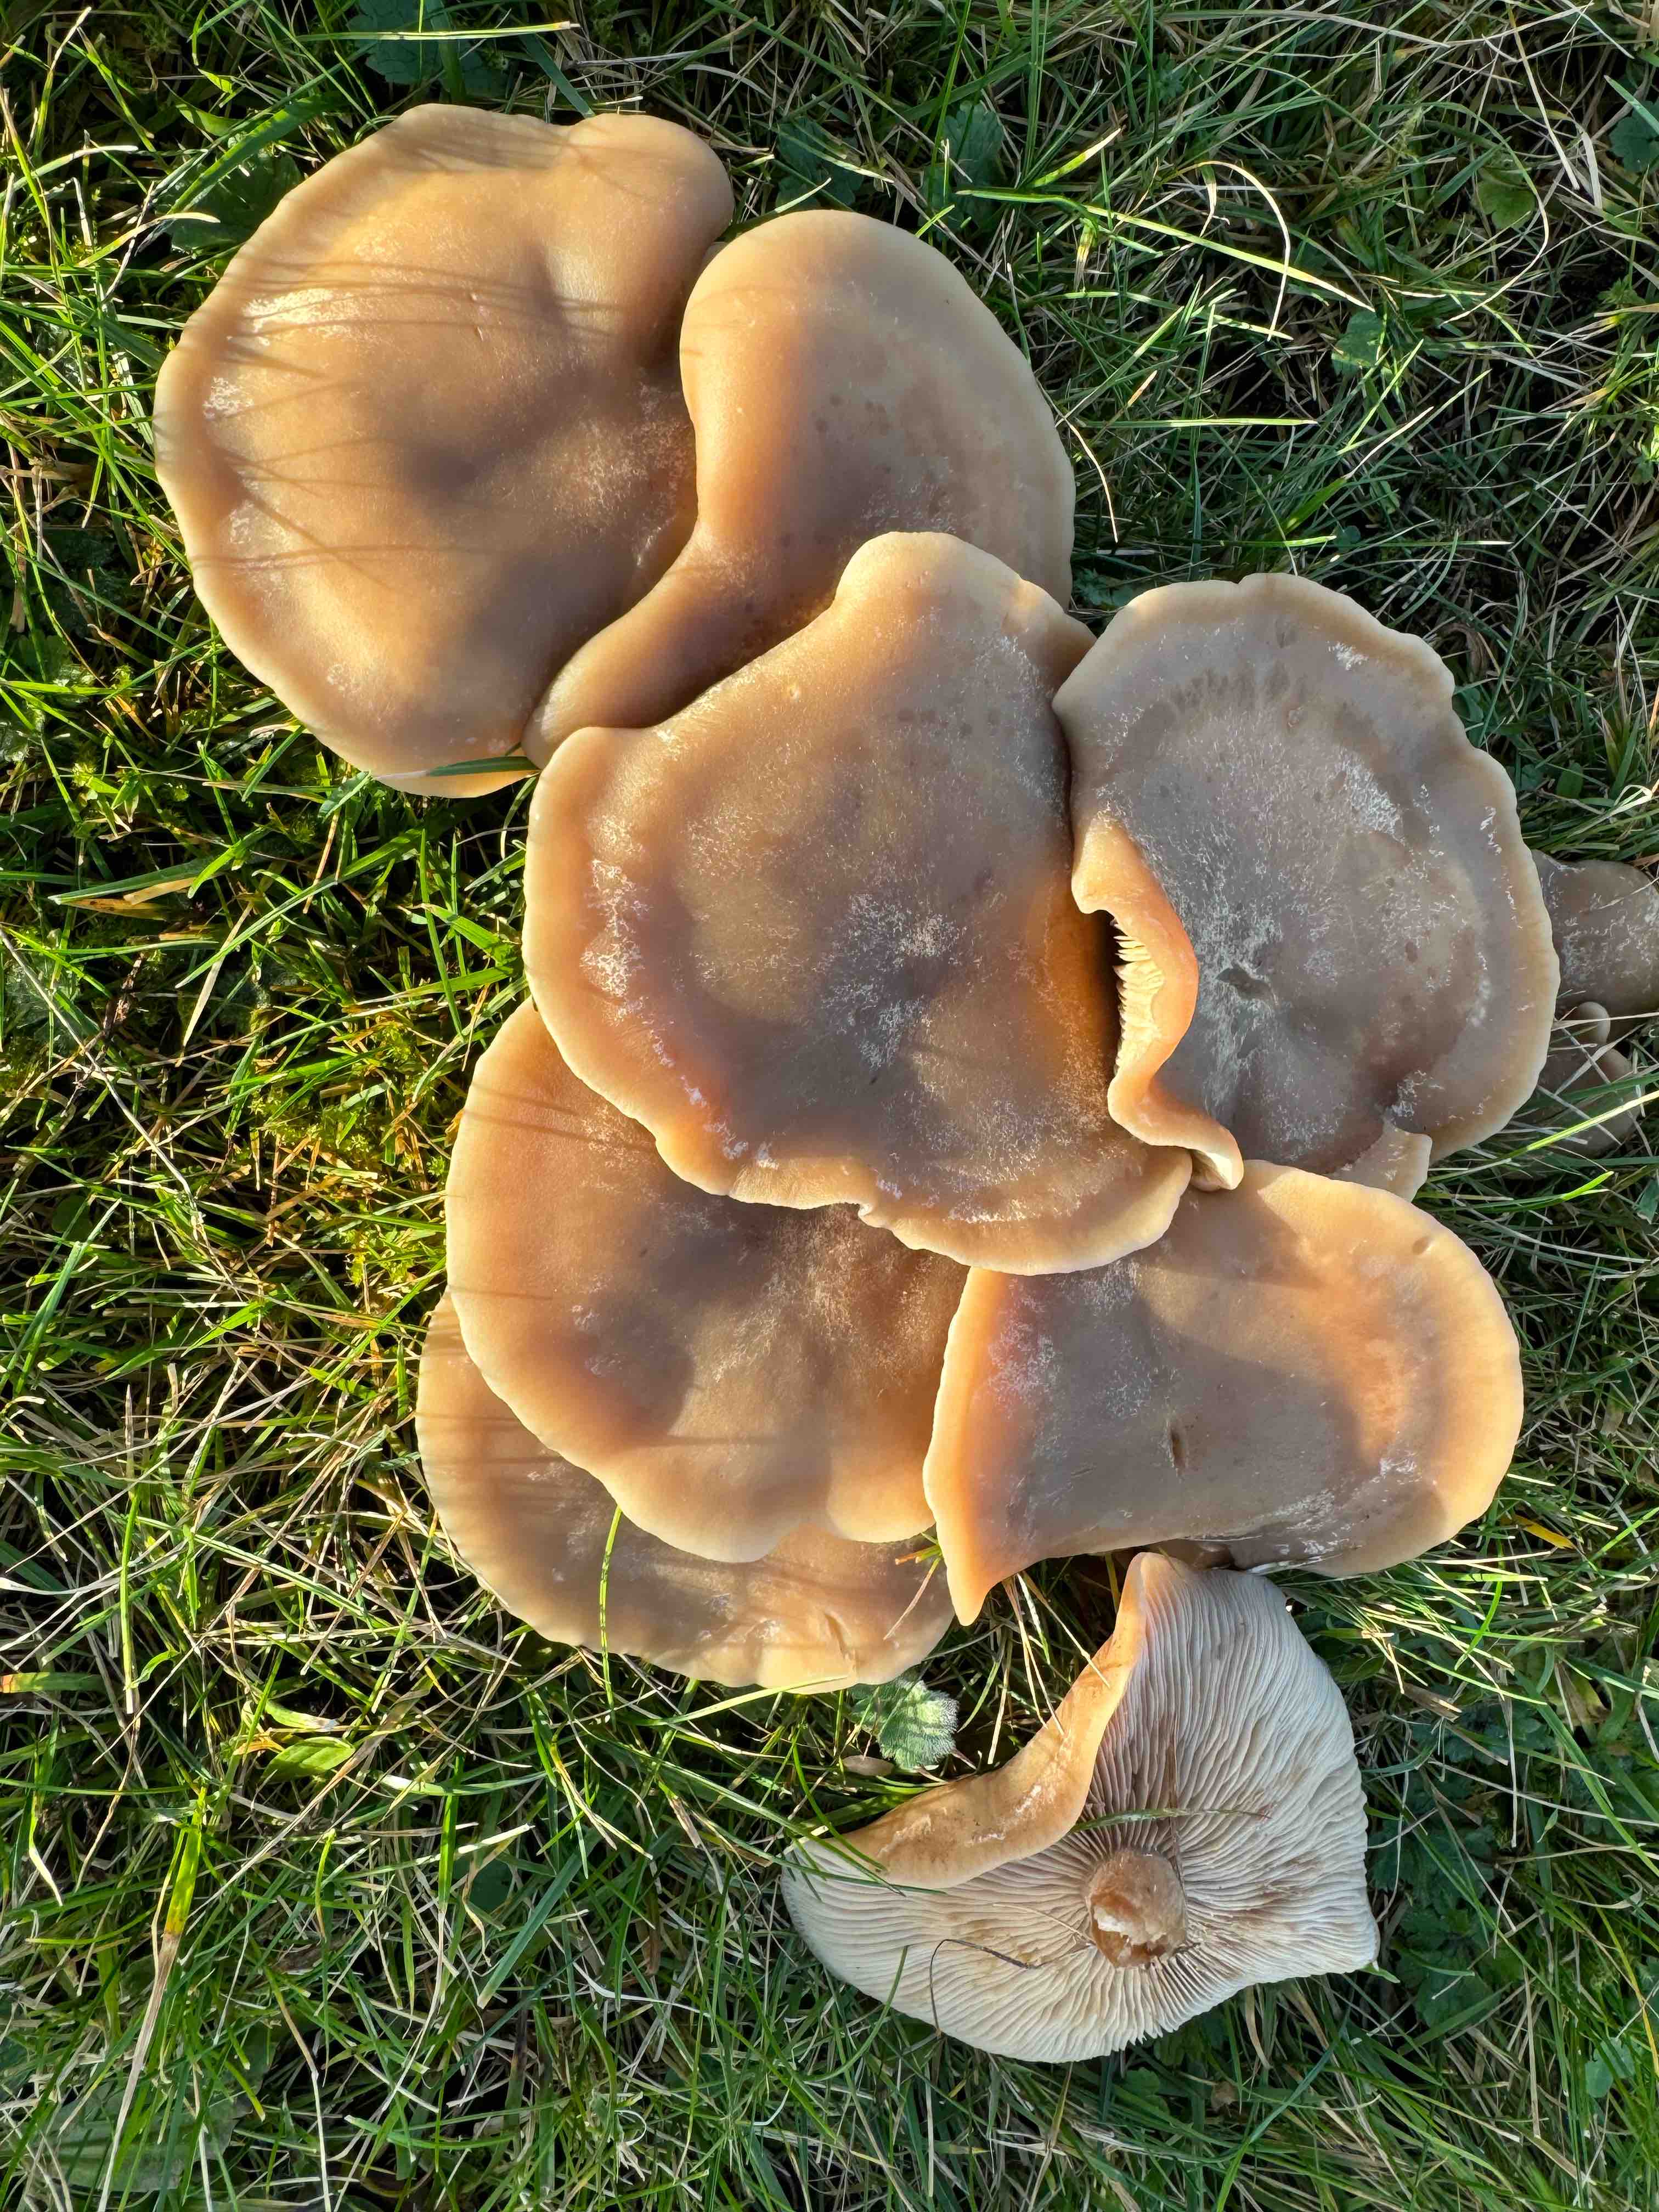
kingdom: Fungi
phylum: Basidiomycota
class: Agaricomycetes
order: Agaricales
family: Tricholomataceae
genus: Lepista
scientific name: Lepista panaeolus
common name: marmoreret hekseringshat
